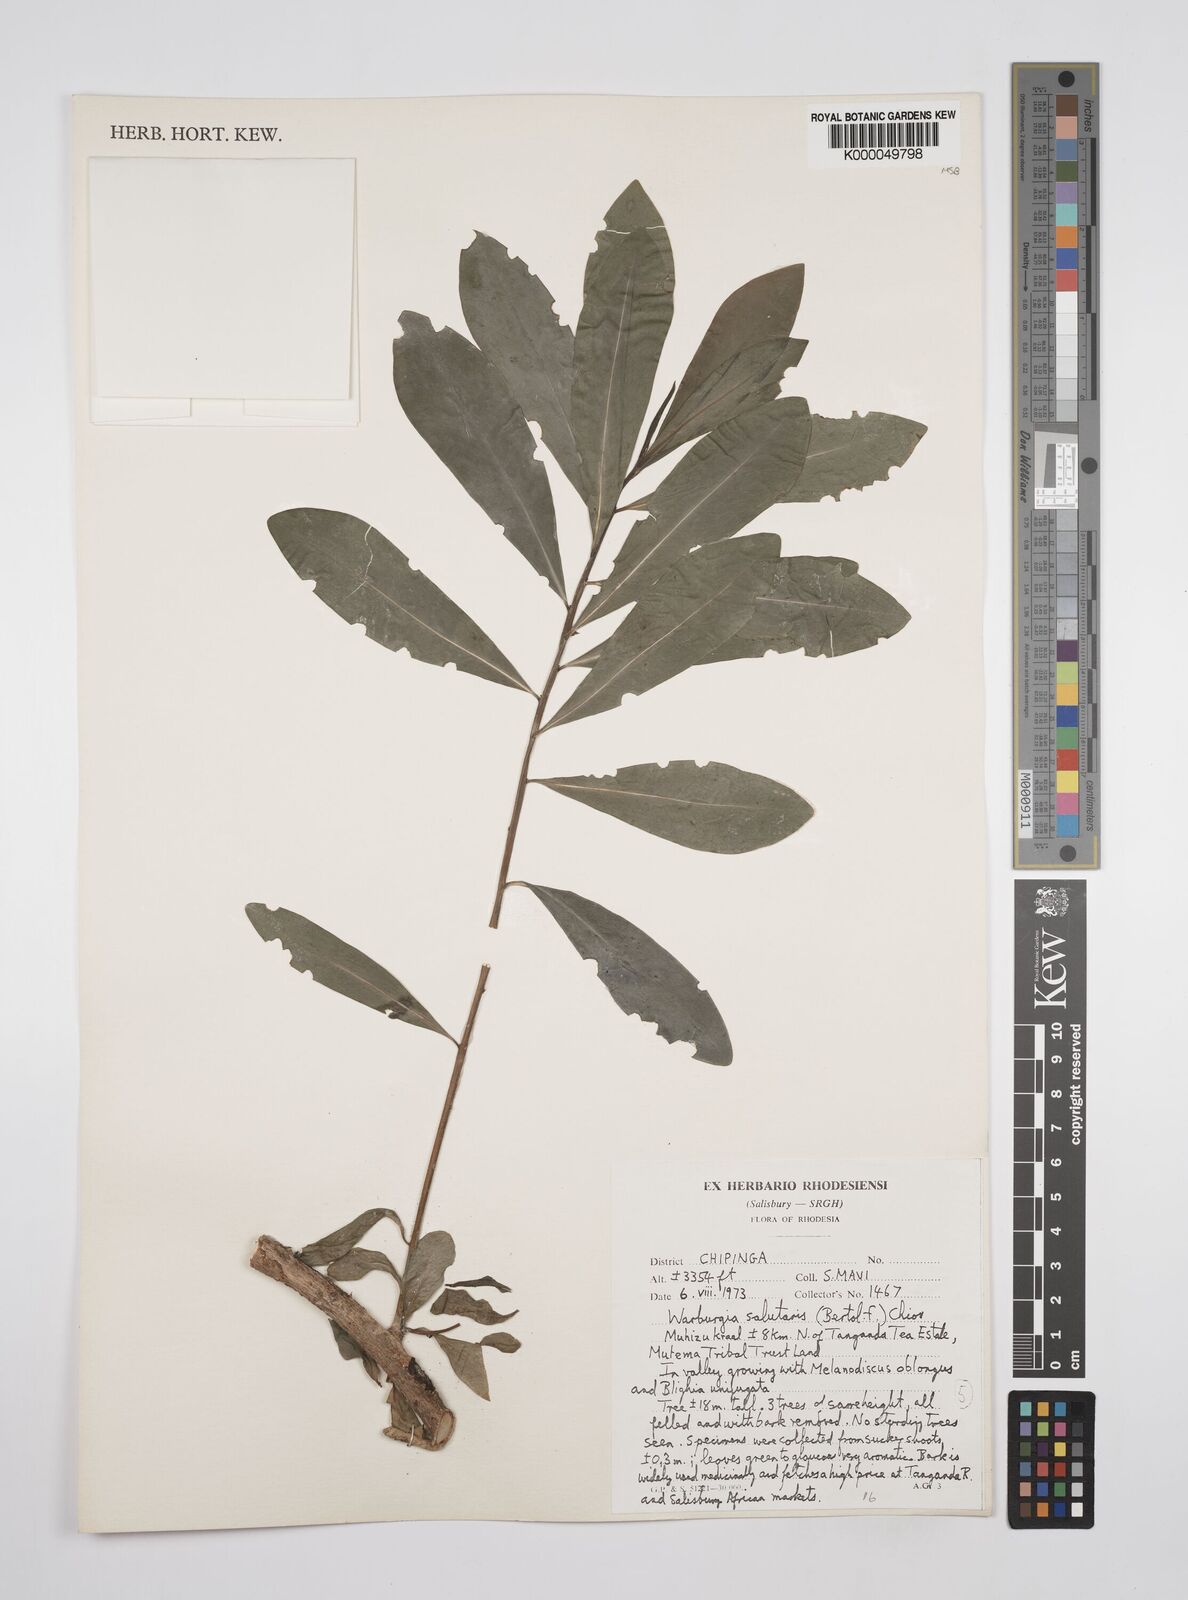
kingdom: Plantae
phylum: Tracheophyta
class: Magnoliopsida
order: Canellales
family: Canellaceae
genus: Warburgia
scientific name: Warburgia salutaris
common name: Pepper bark tree
